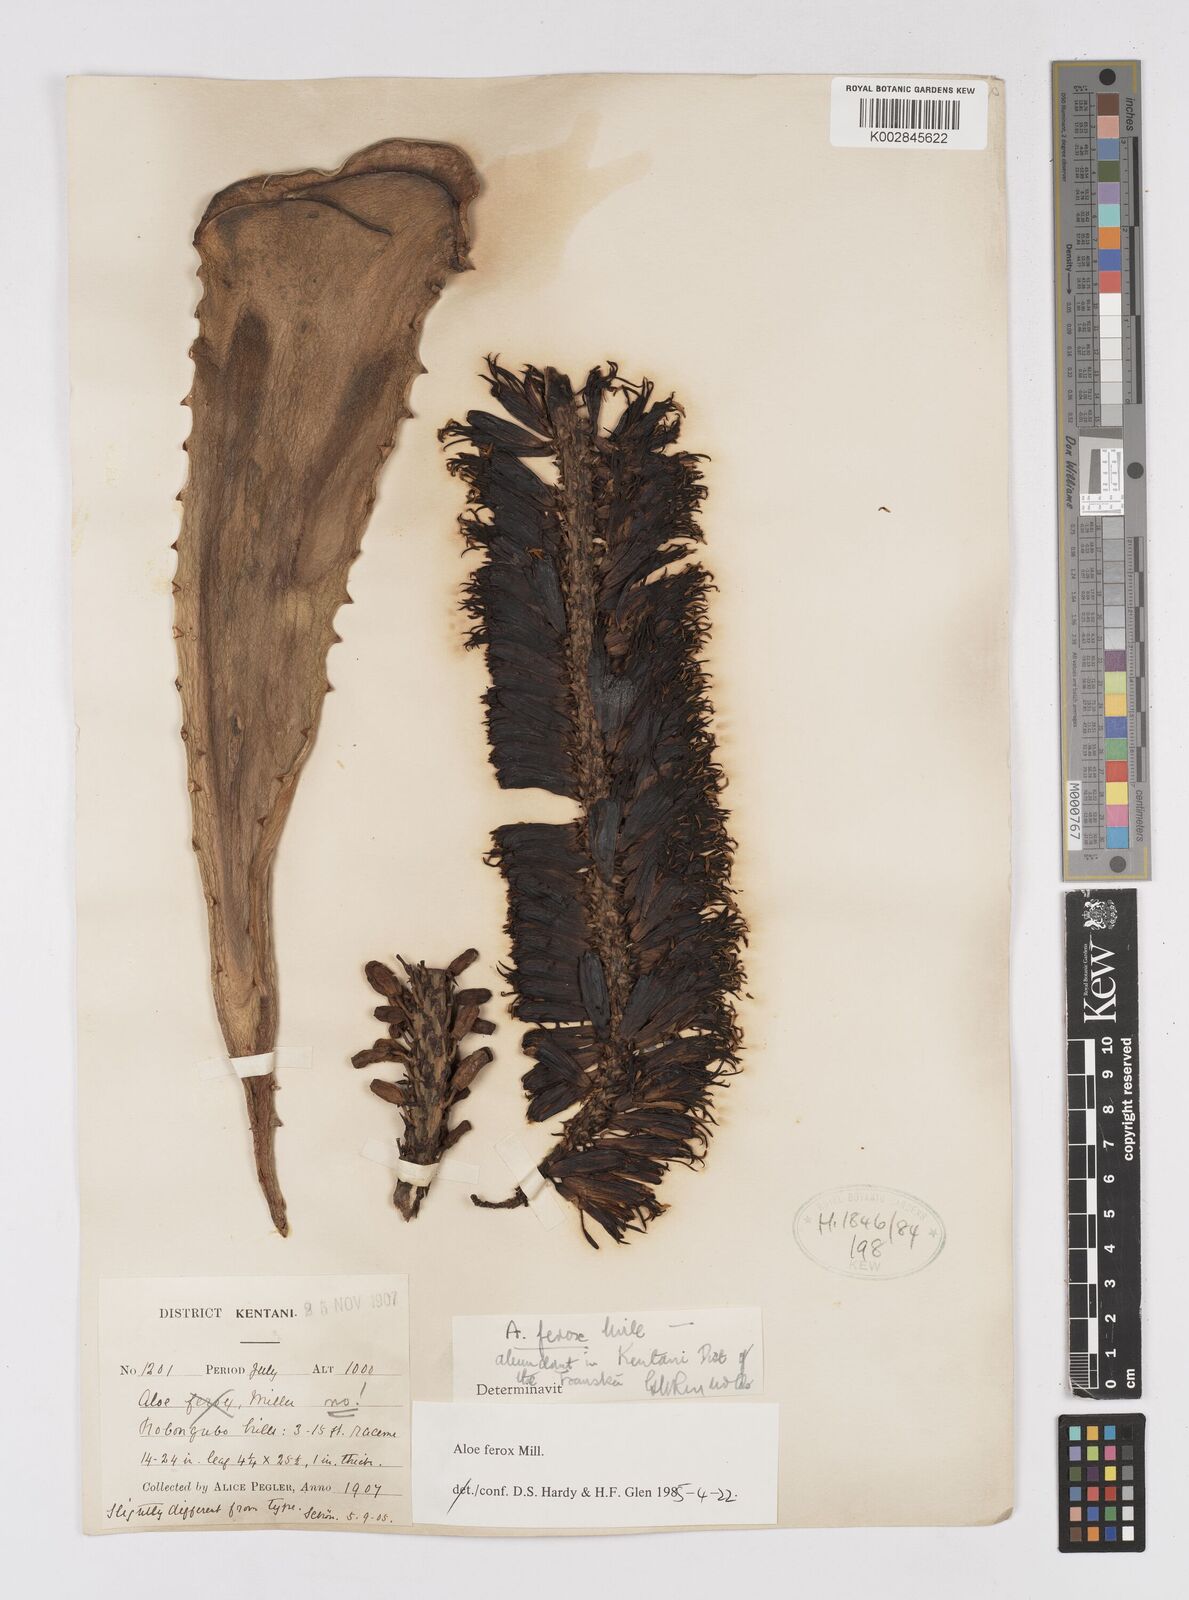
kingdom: Plantae
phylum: Tracheophyta
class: Liliopsida
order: Asparagales
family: Asphodelaceae
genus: Aloe
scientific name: Aloe ferox
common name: Bitter aloe
